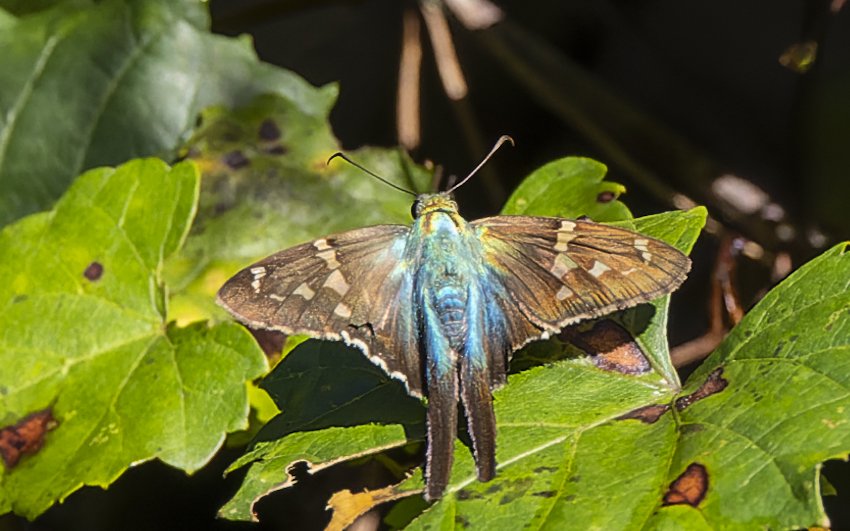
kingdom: Animalia
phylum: Arthropoda
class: Insecta
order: Lepidoptera
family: Hesperiidae
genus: Urbanus
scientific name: Urbanus proteus
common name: Long-tailed Skipper
